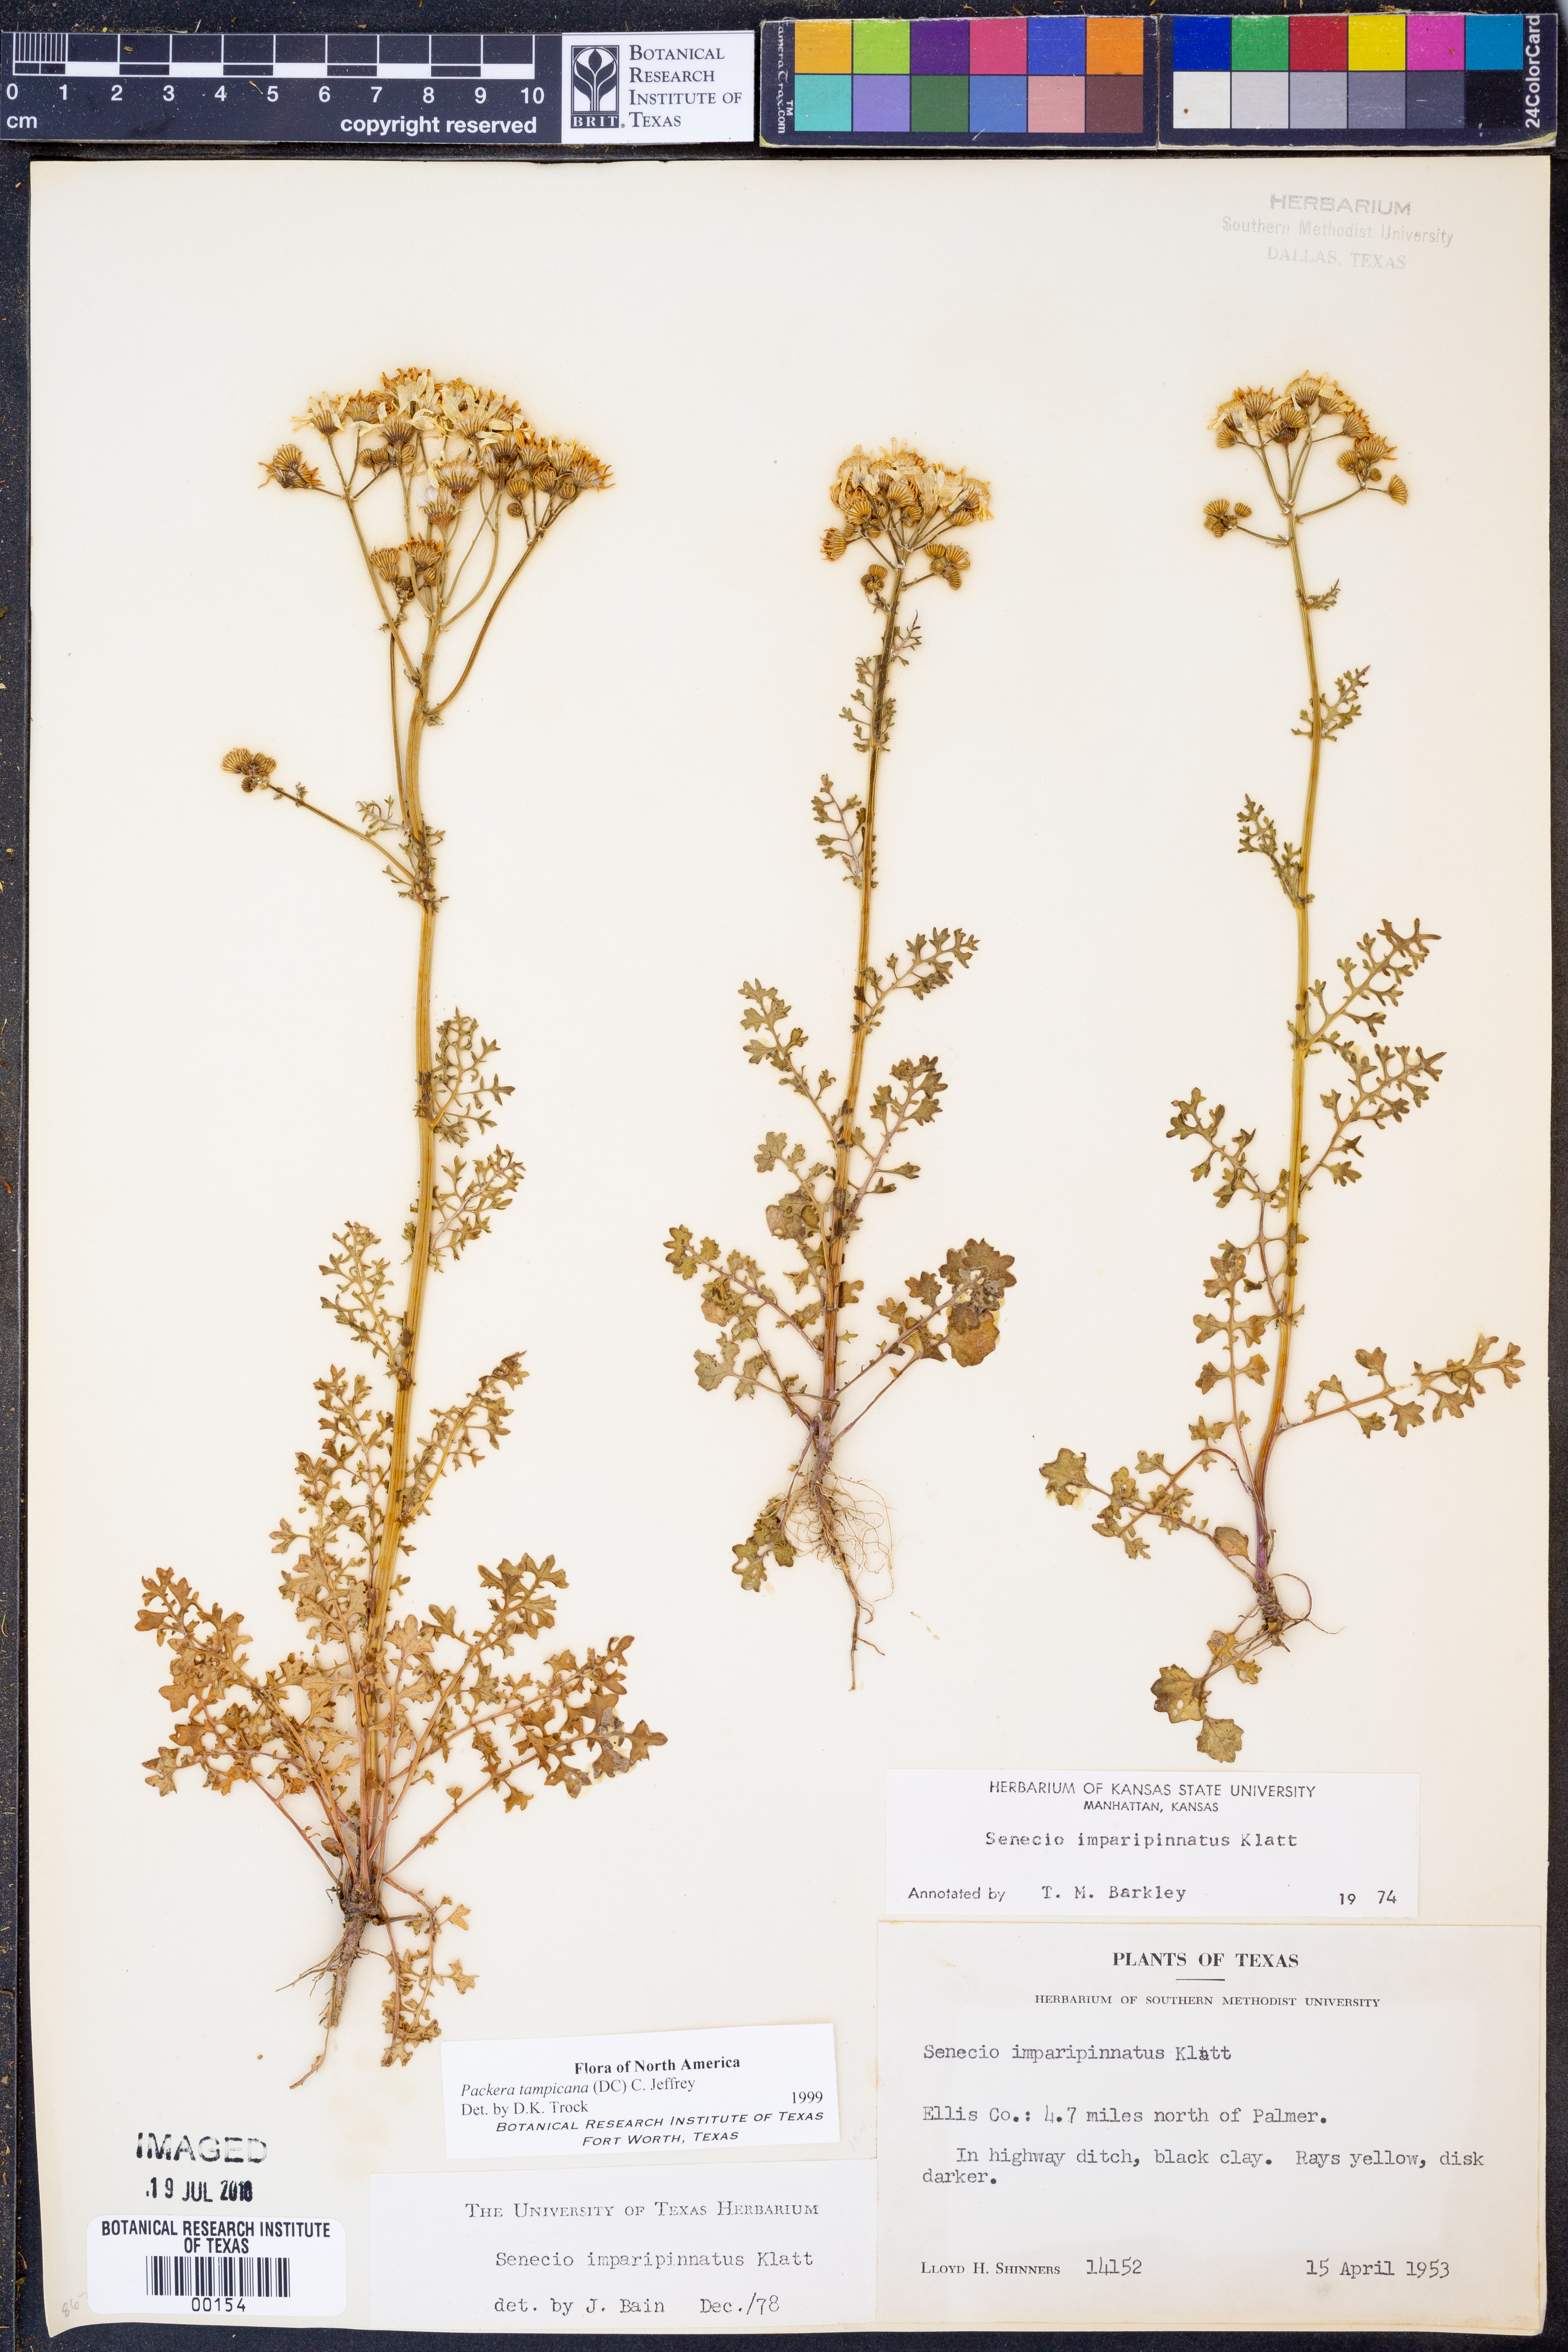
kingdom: Plantae
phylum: Tracheophyta
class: Magnoliopsida
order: Asterales
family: Asteraceae
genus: Packera
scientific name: Packera tampicana
